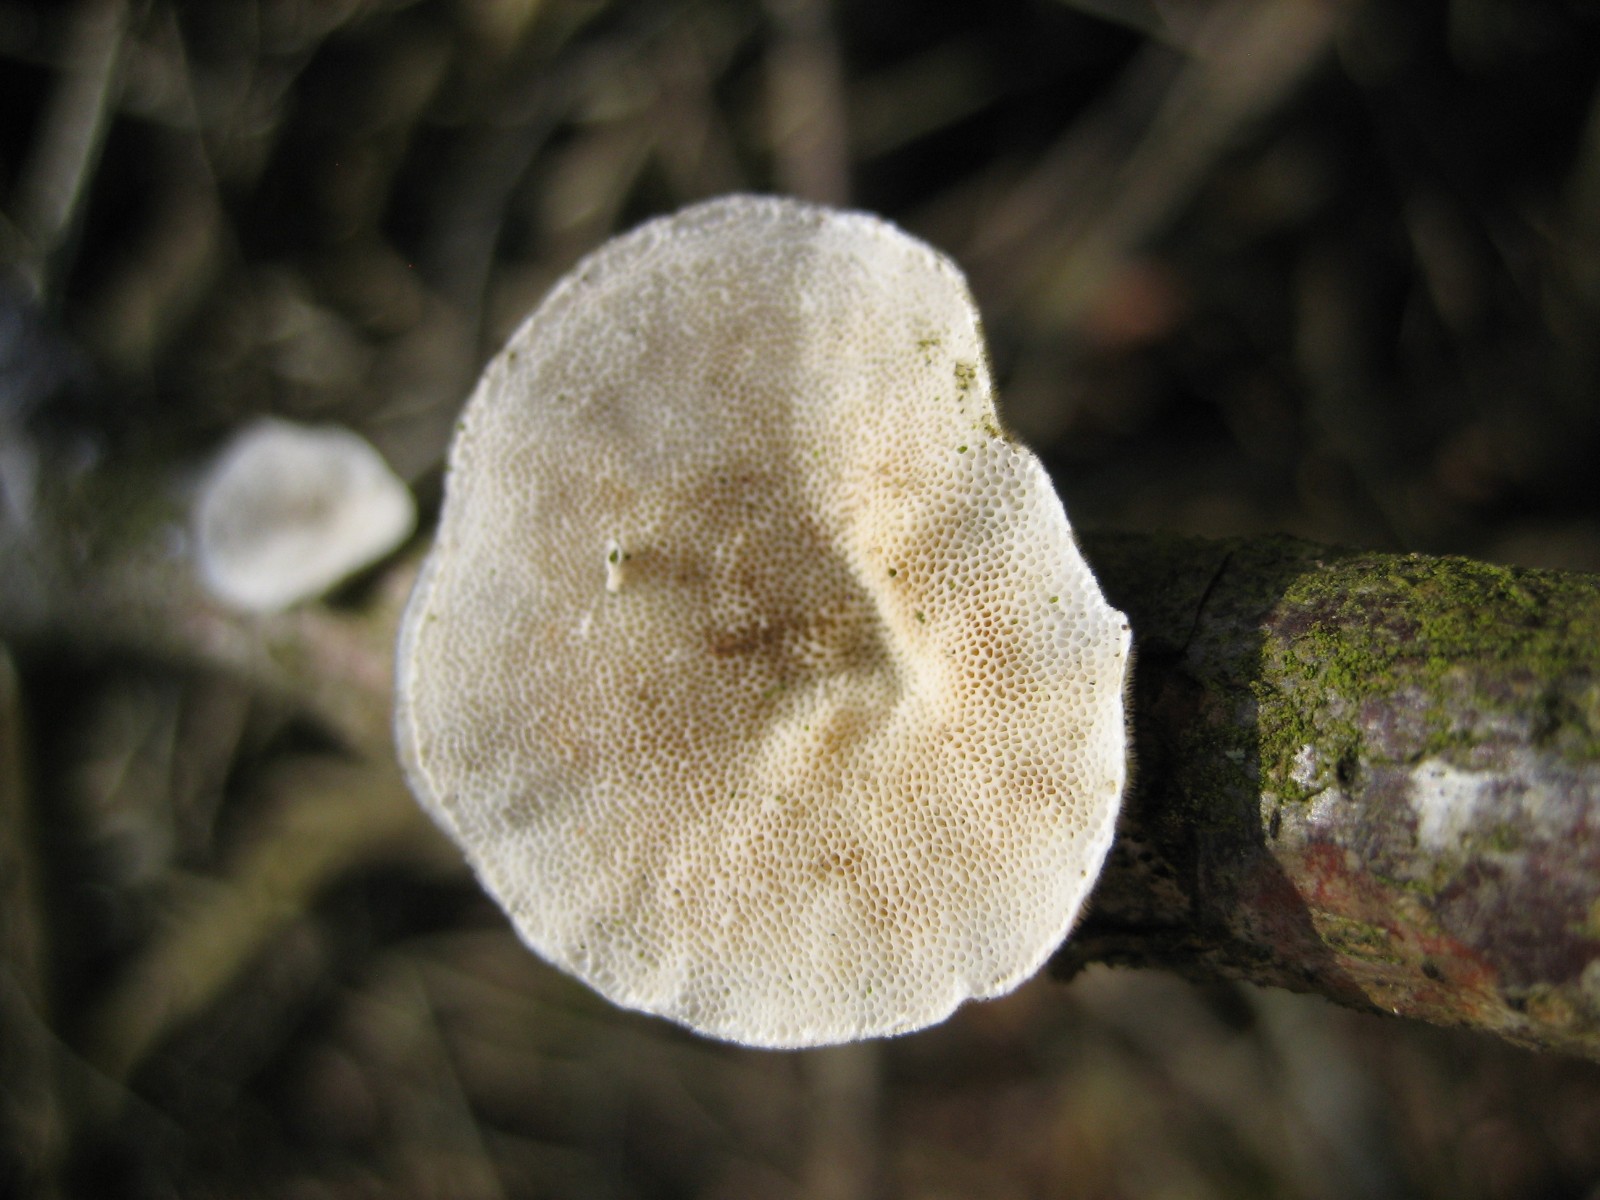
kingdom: Fungi
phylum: Basidiomycota
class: Agaricomycetes
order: Polyporales
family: Polyporaceae
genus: Trametes
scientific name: Trametes hirsuta
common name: håret læderporesvamp
